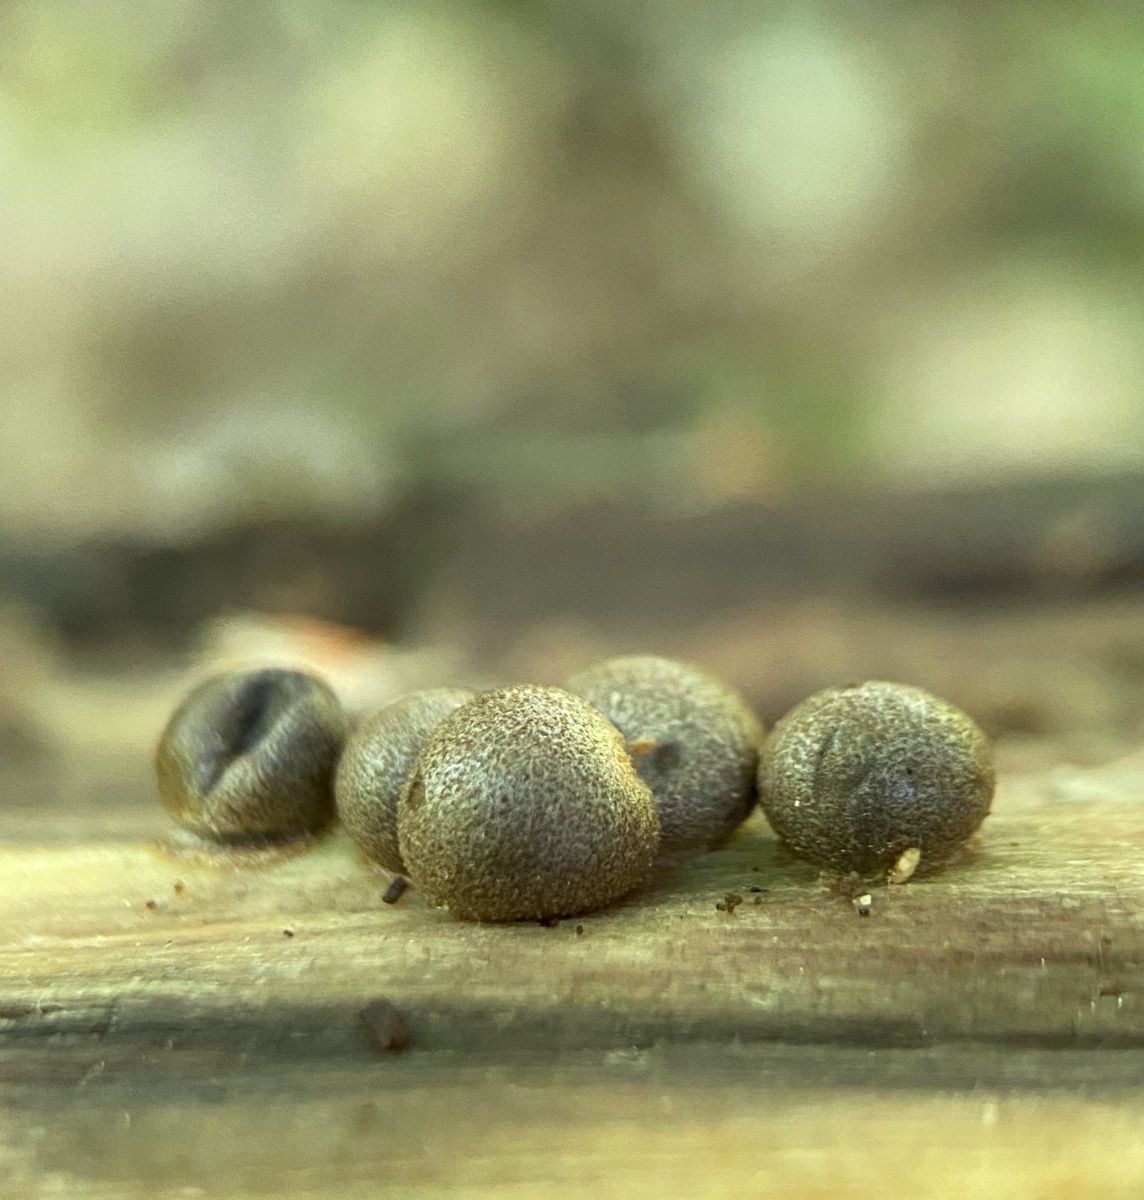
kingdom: Protozoa
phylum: Mycetozoa
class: Myxomycetes
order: Cribrariales
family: Tubiferaceae
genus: Lycogala
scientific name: Lycogala epidendrum
